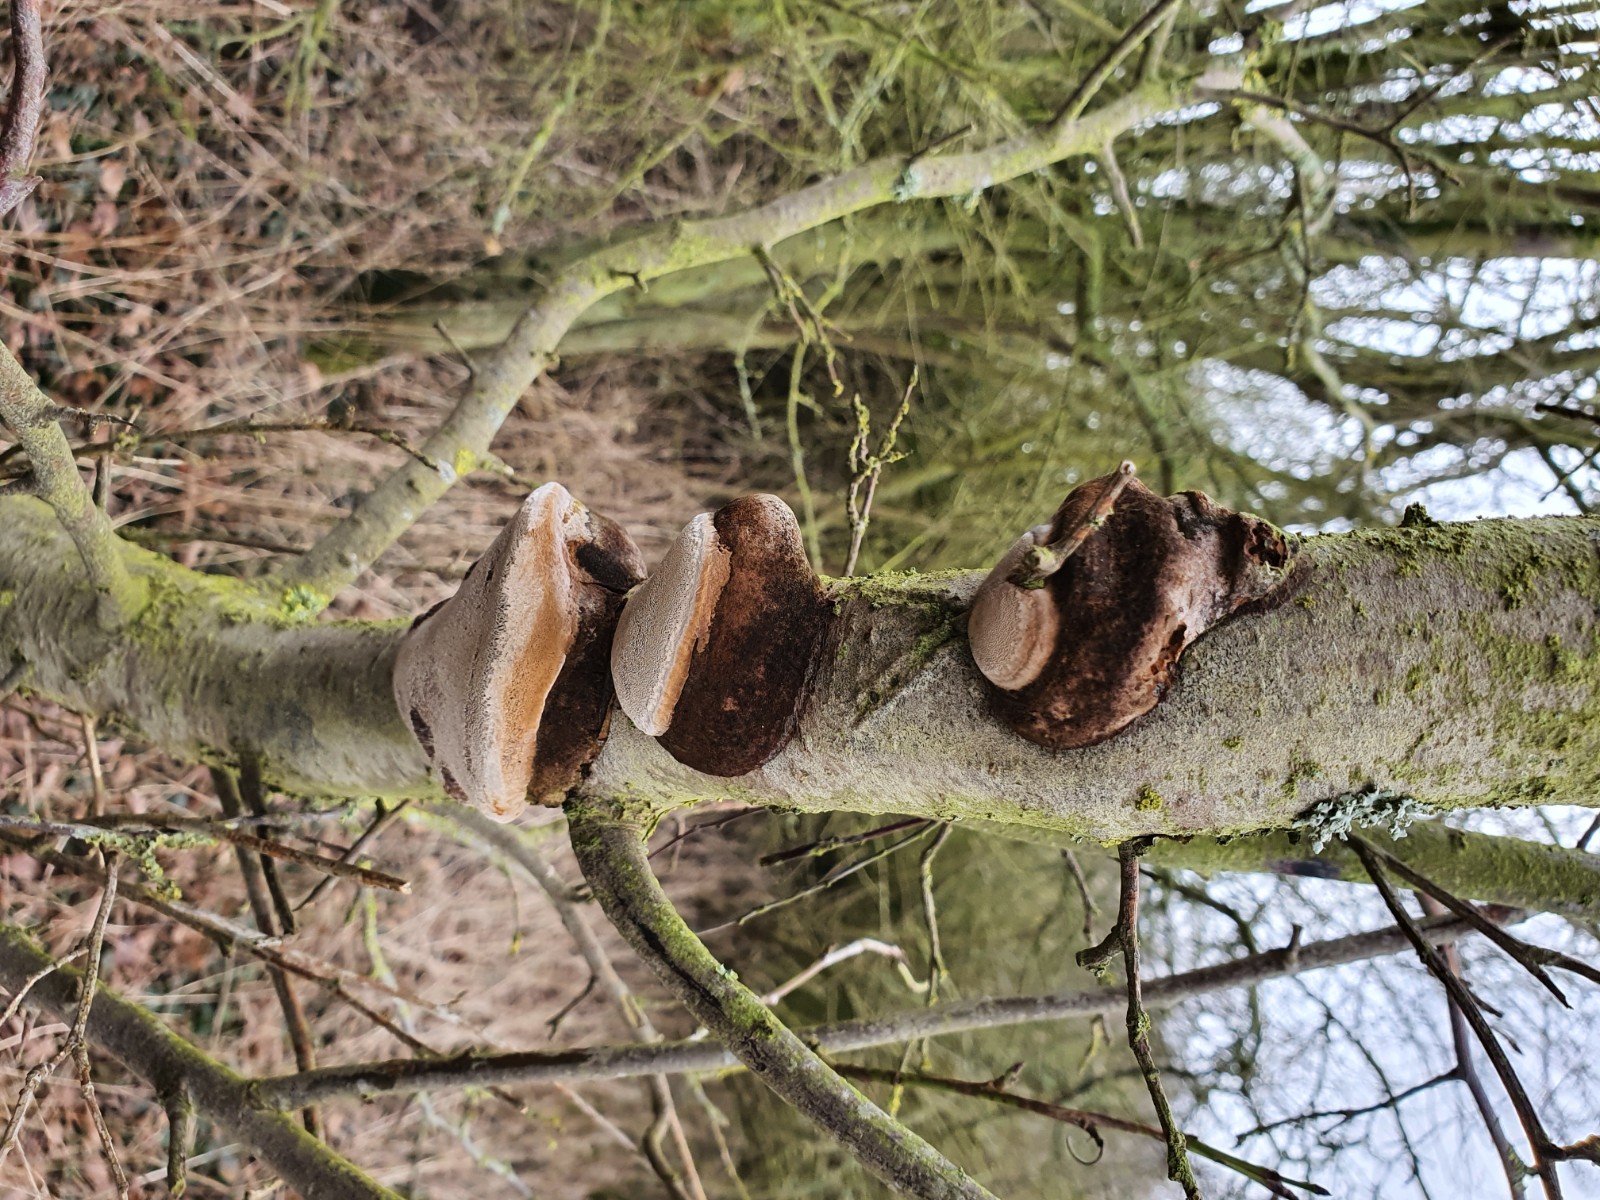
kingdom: Fungi
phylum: Basidiomycota
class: Agaricomycetes
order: Hymenochaetales
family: Hymenochaetaceae
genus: Phellinus
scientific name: Phellinus pomaceus
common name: blomme-ildporesvamp
